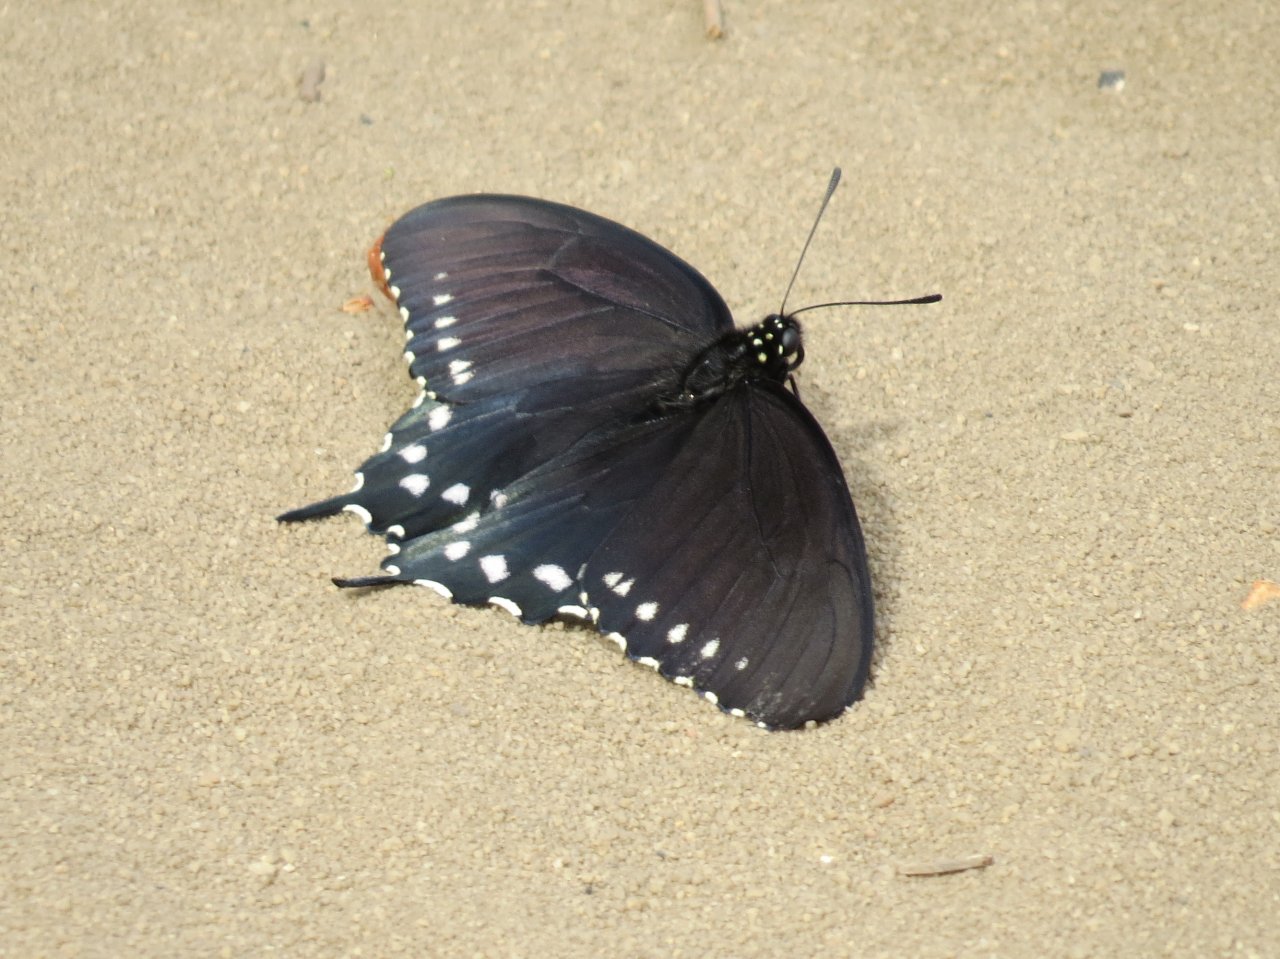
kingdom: Animalia
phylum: Arthropoda
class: Insecta
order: Lepidoptera
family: Papilionidae
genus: Battus
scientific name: Battus philenor
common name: Pipevine Swallowtail
